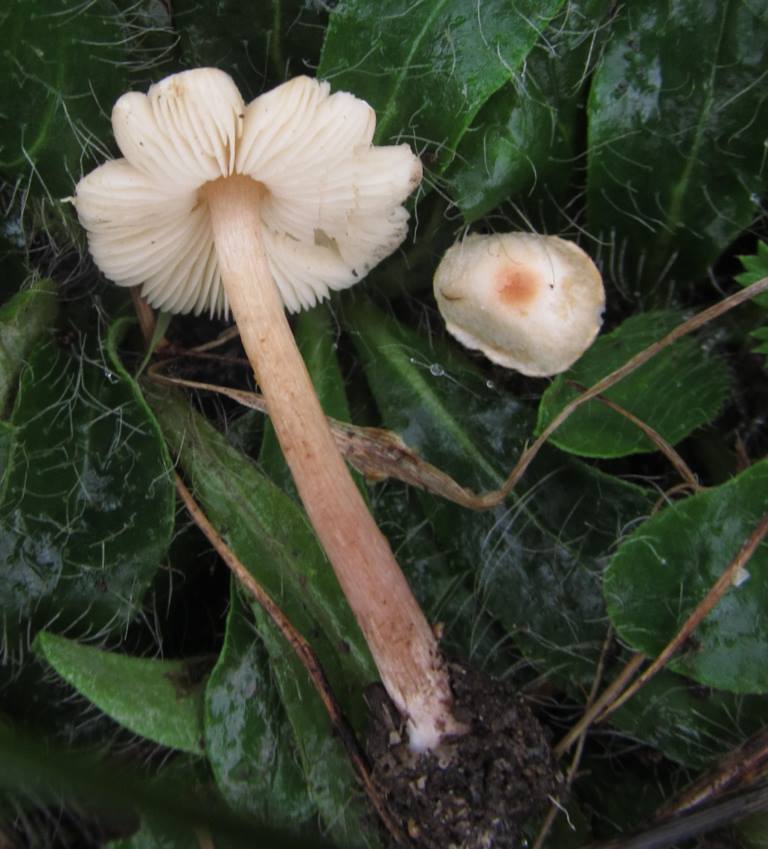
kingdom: Fungi
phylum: Basidiomycota
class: Agaricomycetes
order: Agaricales
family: Agaricaceae
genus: Lepiota
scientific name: Lepiota cristata
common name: stinkende parasolhat
